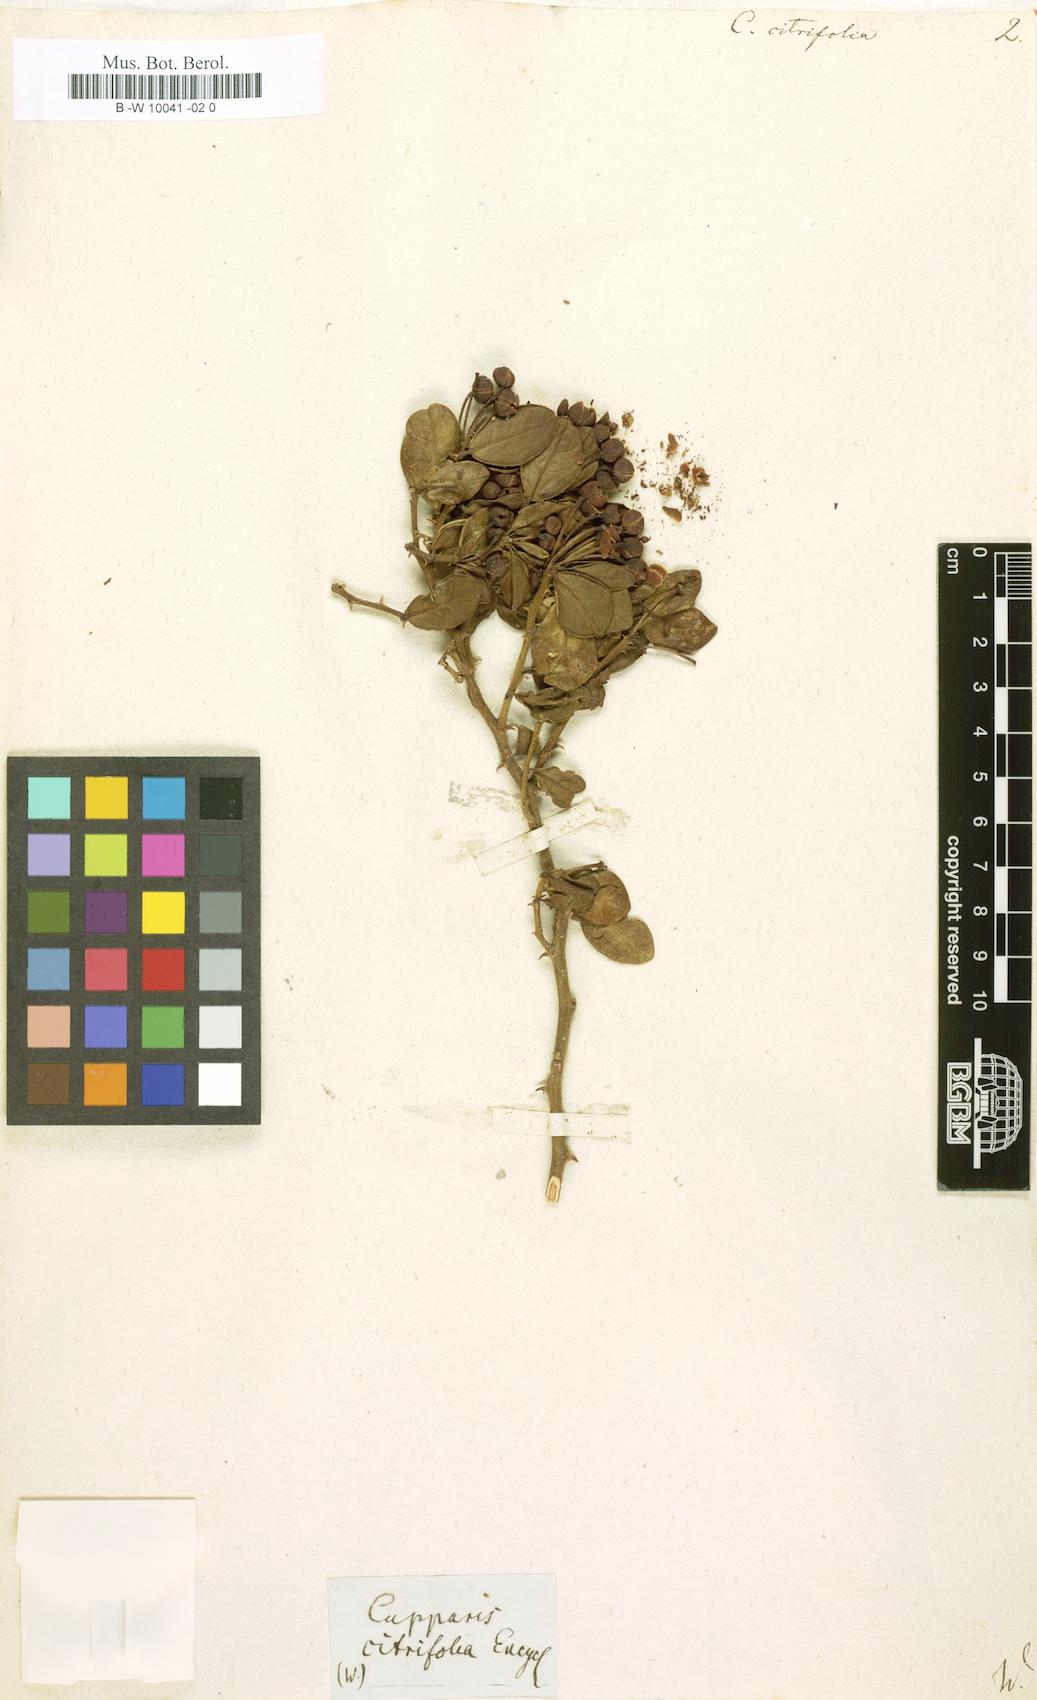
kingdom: Plantae
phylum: Tracheophyta
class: Magnoliopsida
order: Brassicales
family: Capparaceae
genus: Capparis
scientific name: Capparis sepiaria
